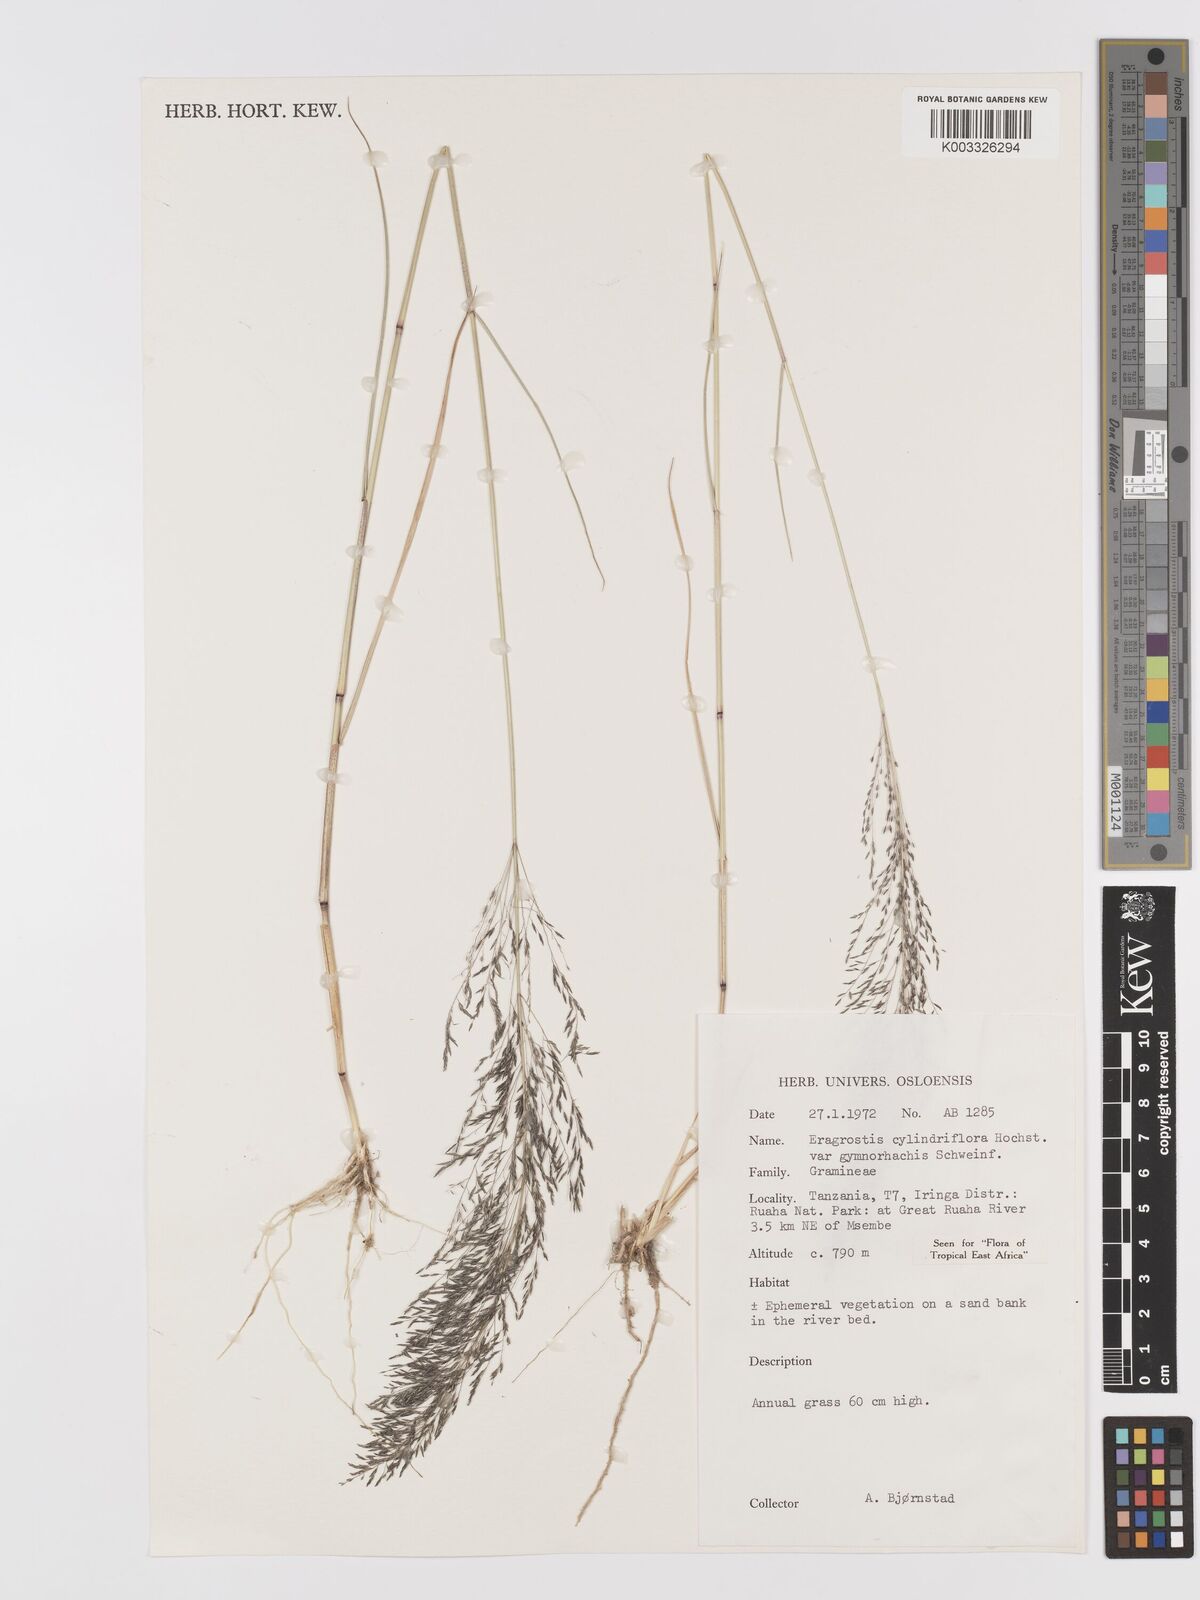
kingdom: Plantae
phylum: Tracheophyta
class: Liliopsida
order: Poales
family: Poaceae
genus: Eragrostis
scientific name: Eragrostis cylindriflora
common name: Cylinderflower lovegrass
